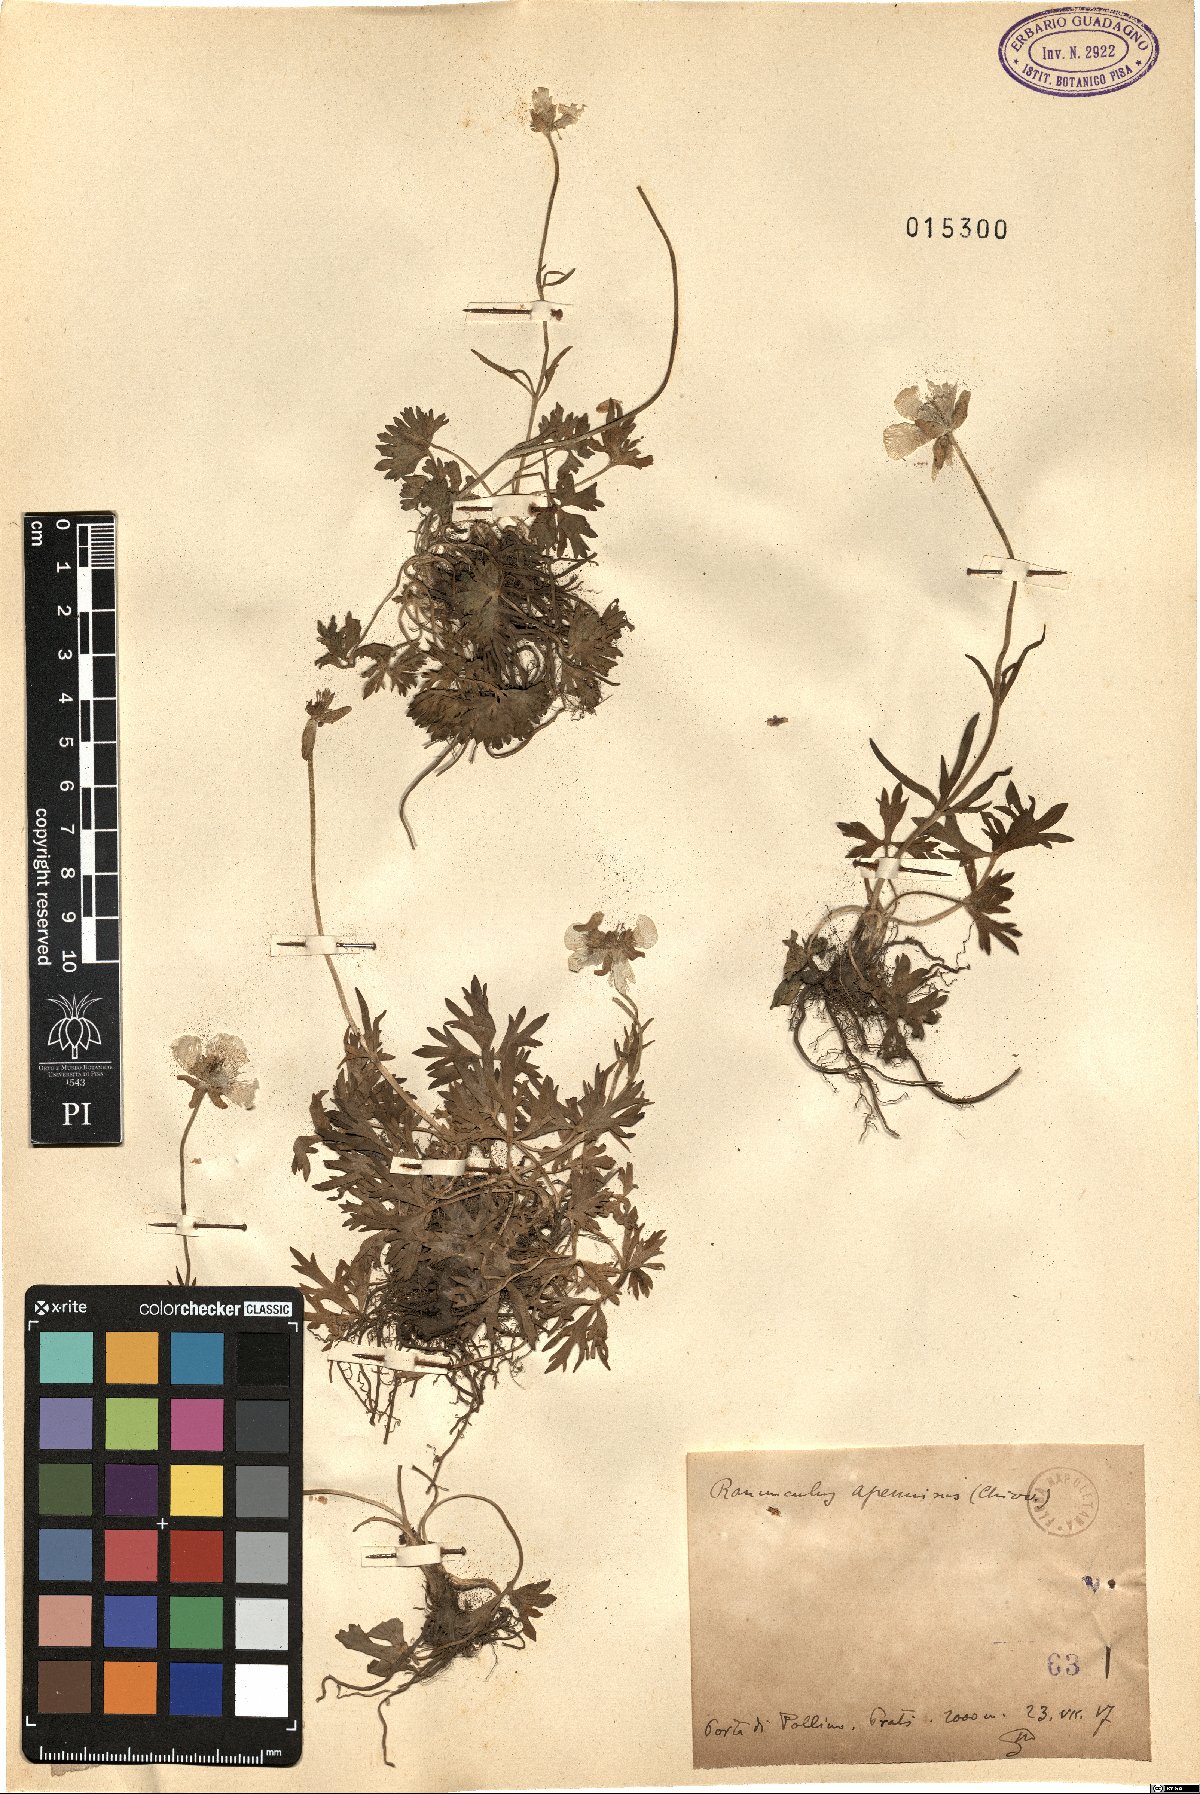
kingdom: Plantae
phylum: Tracheophyta
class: Magnoliopsida
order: Ranunculales
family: Ranunculaceae
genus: Ranunculus
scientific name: Ranunculus apenninus
